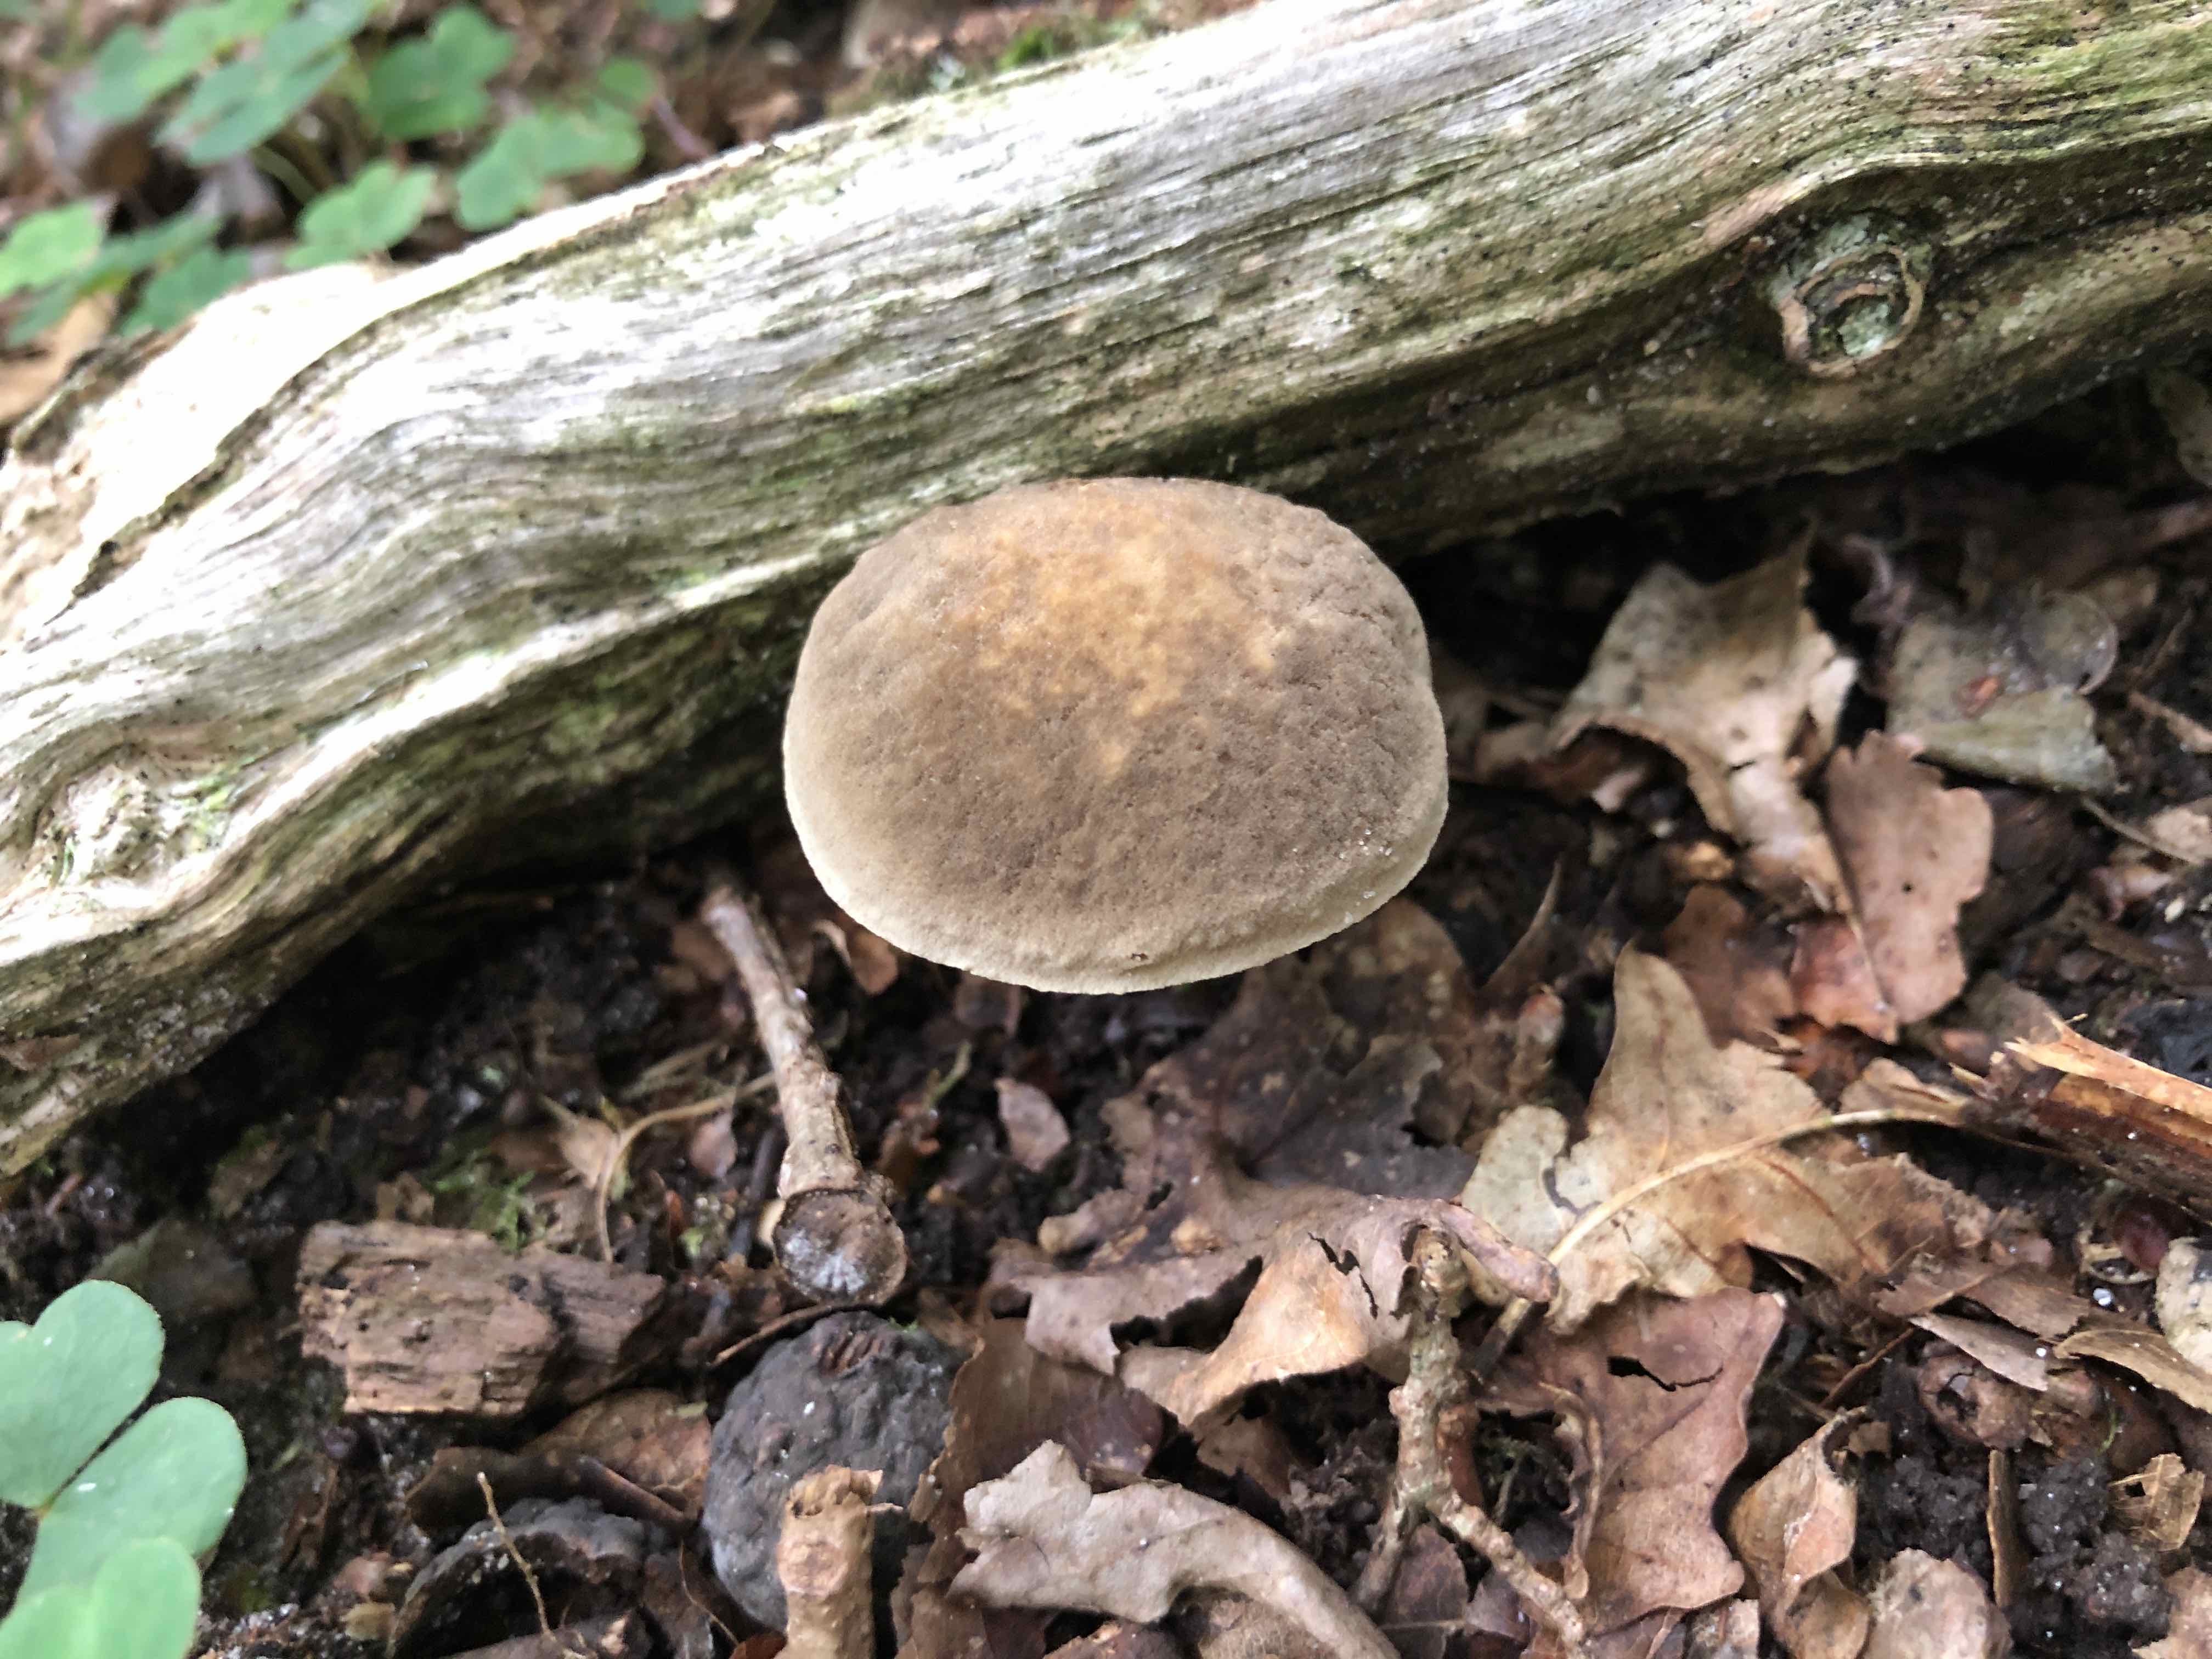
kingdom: Fungi
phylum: Basidiomycota
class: Agaricomycetes
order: Boletales
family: Boletaceae
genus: Xerocomellus
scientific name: Xerocomellus
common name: dværgrørhat
